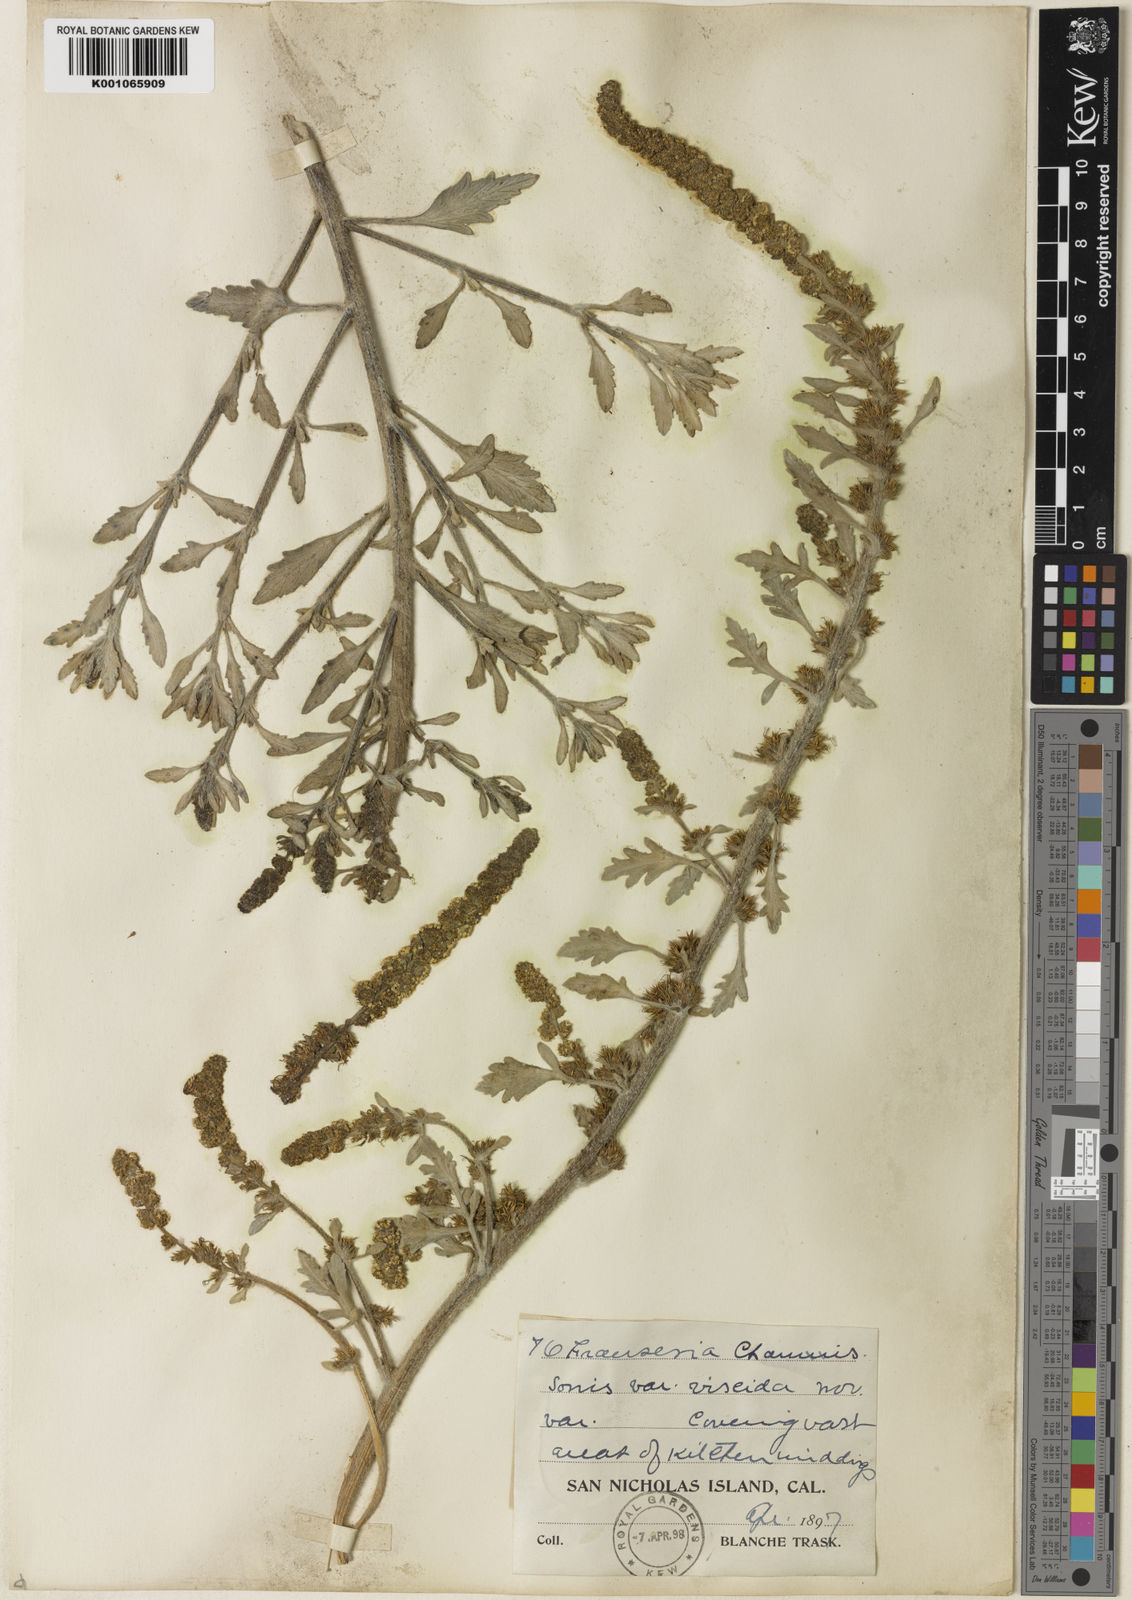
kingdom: Plantae
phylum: Tracheophyta
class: Magnoliopsida
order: Asterales
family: Asteraceae
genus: Ambrosia
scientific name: Ambrosia chamissonis
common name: Beachbur
